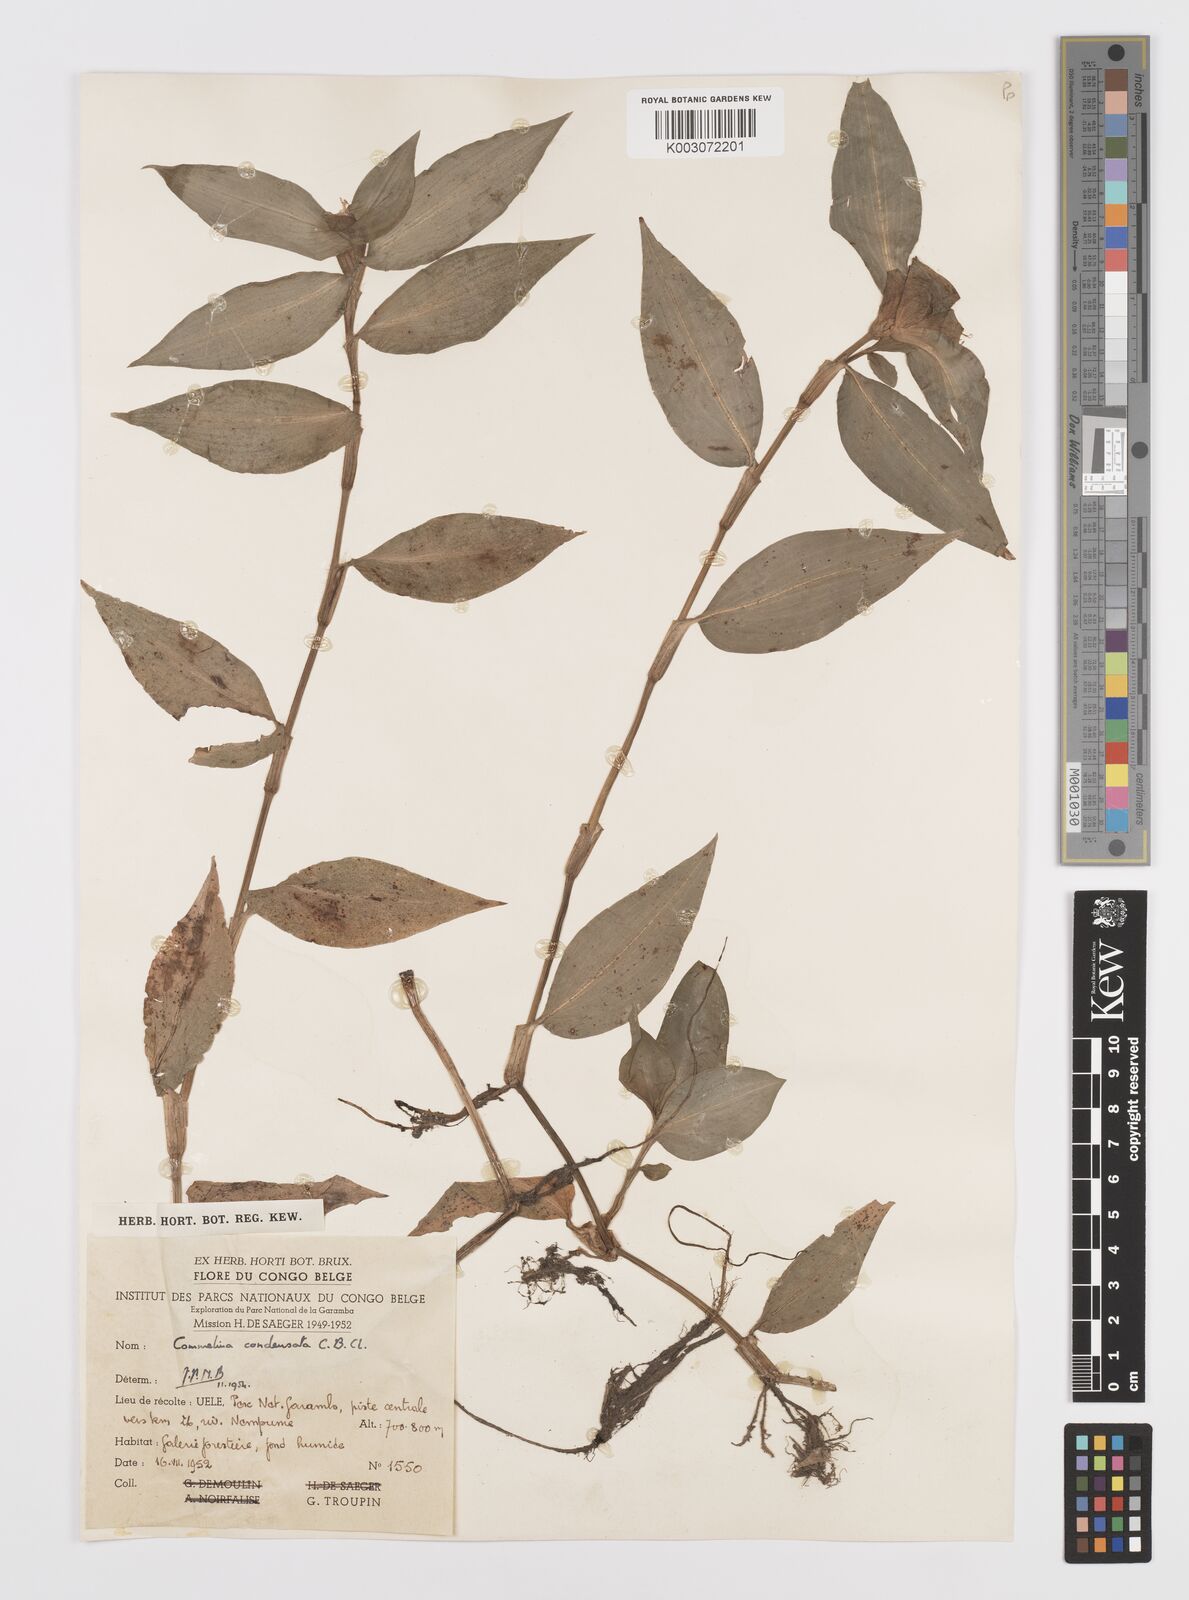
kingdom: Plantae
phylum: Tracheophyta
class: Liliopsida
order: Commelinales
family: Commelinaceae
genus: Commelina
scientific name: Commelina congesta
